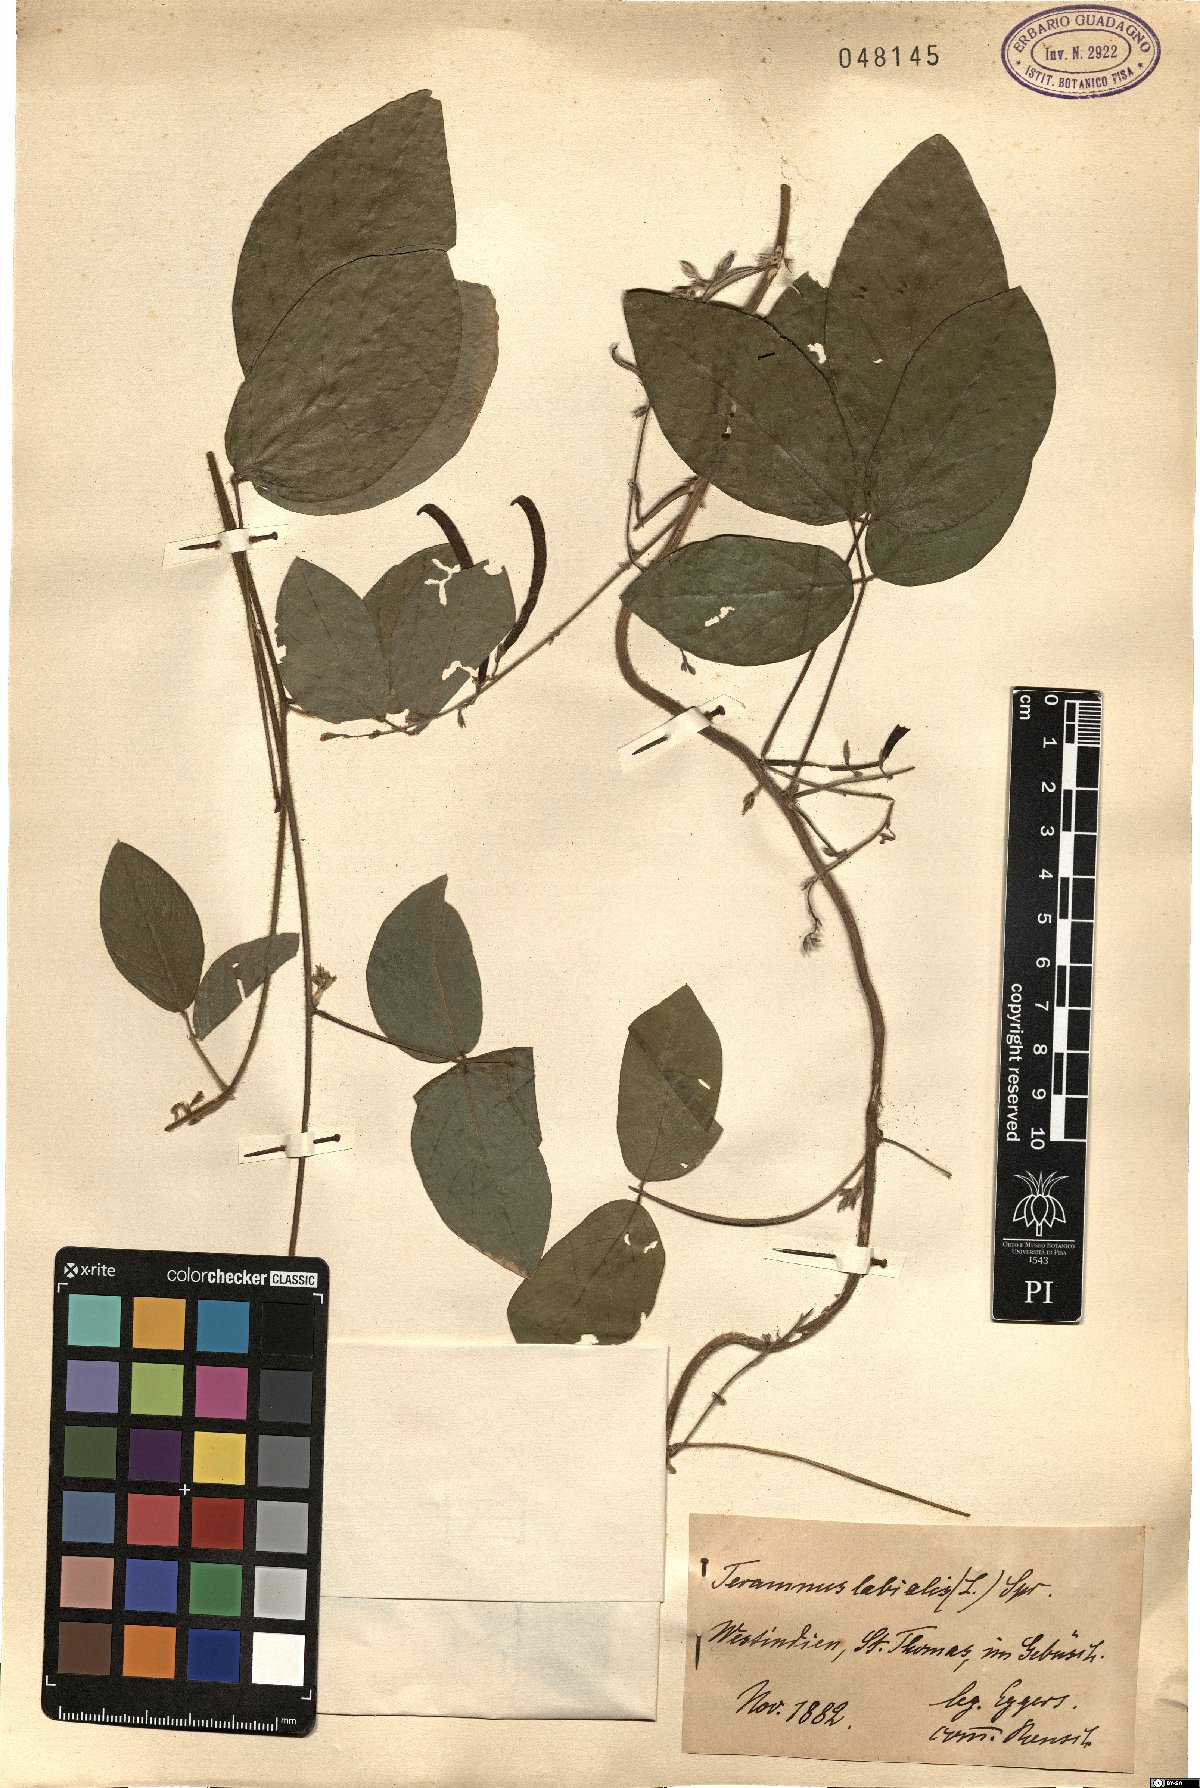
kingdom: Plantae
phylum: Tracheophyta
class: Magnoliopsida
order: Fabales
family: Fabaceae
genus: Teramnus
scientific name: Teramnus labialis
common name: Blue wiss
